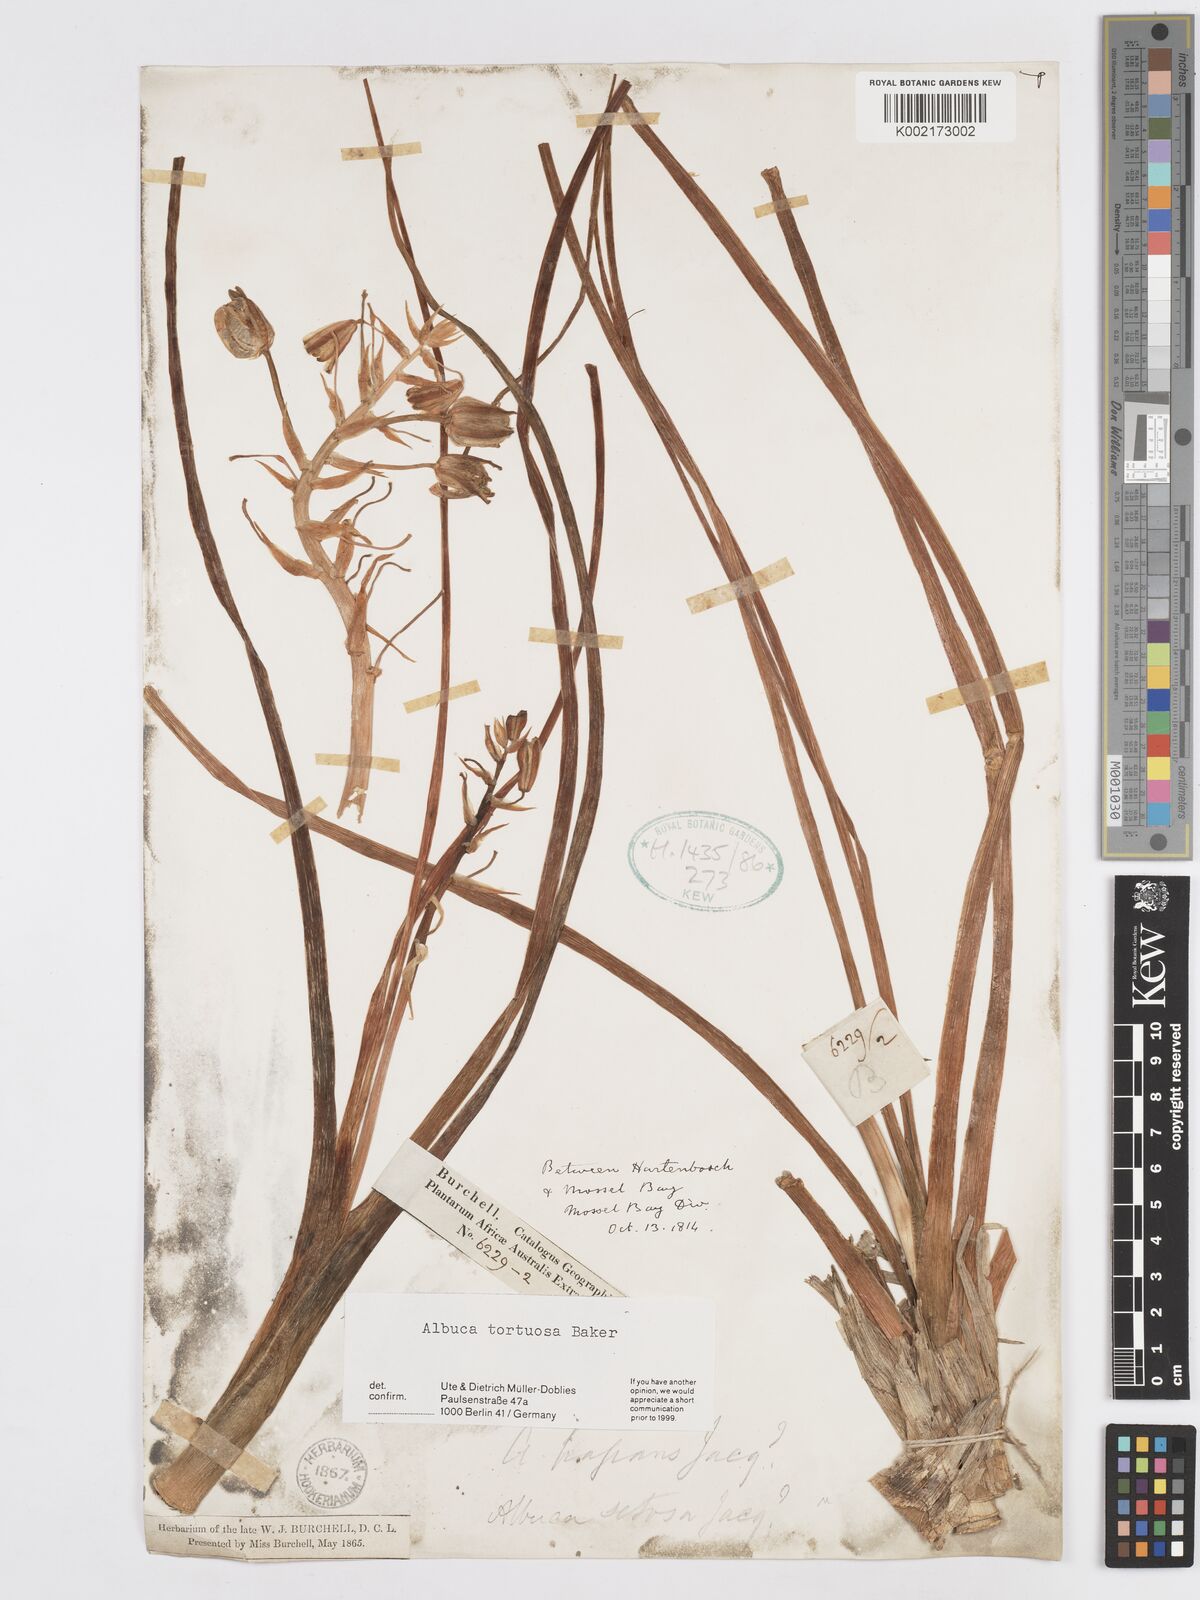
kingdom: Plantae
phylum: Tracheophyta
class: Liliopsida
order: Asparagales
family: Asparagaceae
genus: Albuca
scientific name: Albuca tortuosa
